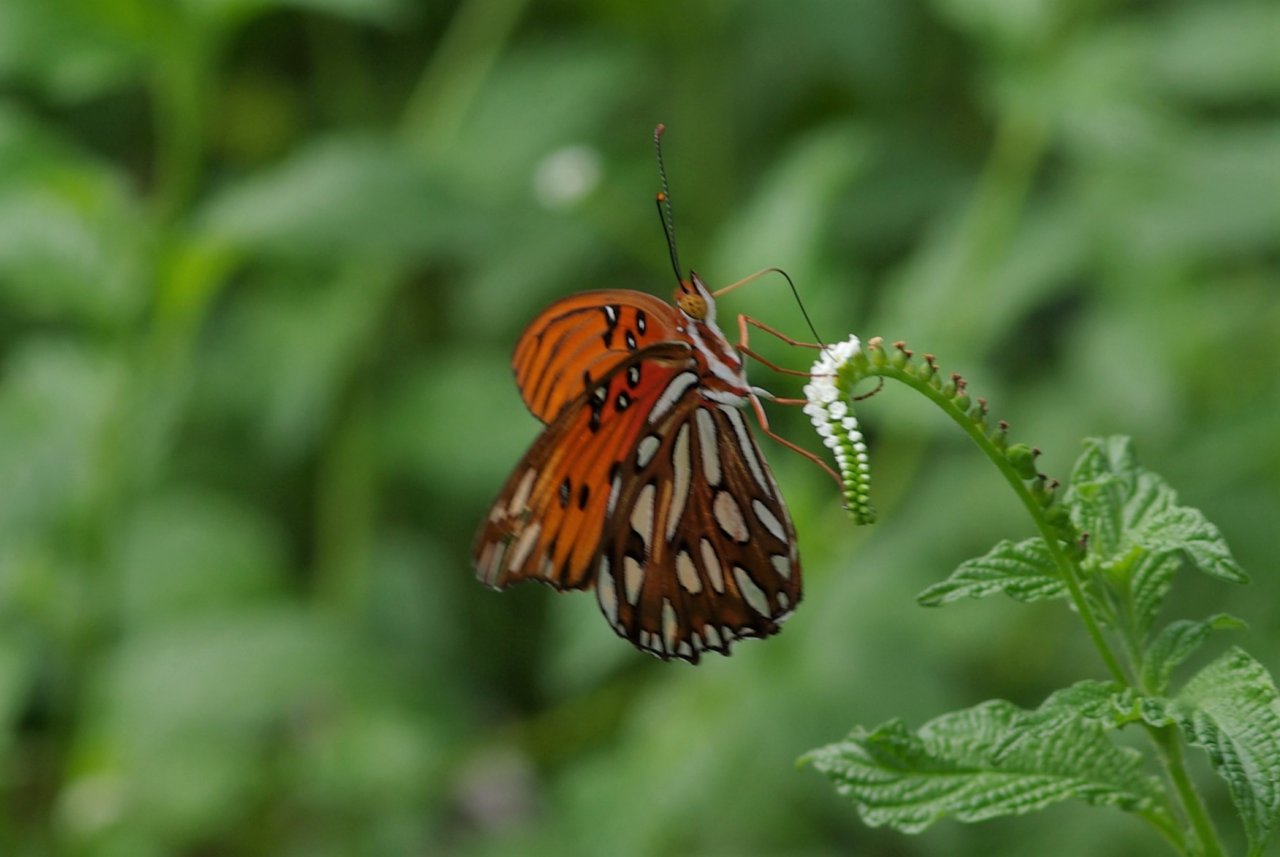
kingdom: Animalia
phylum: Arthropoda
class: Insecta
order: Lepidoptera
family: Nymphalidae
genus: Dione
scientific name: Dione vanillae
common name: Gulf Fritillary
